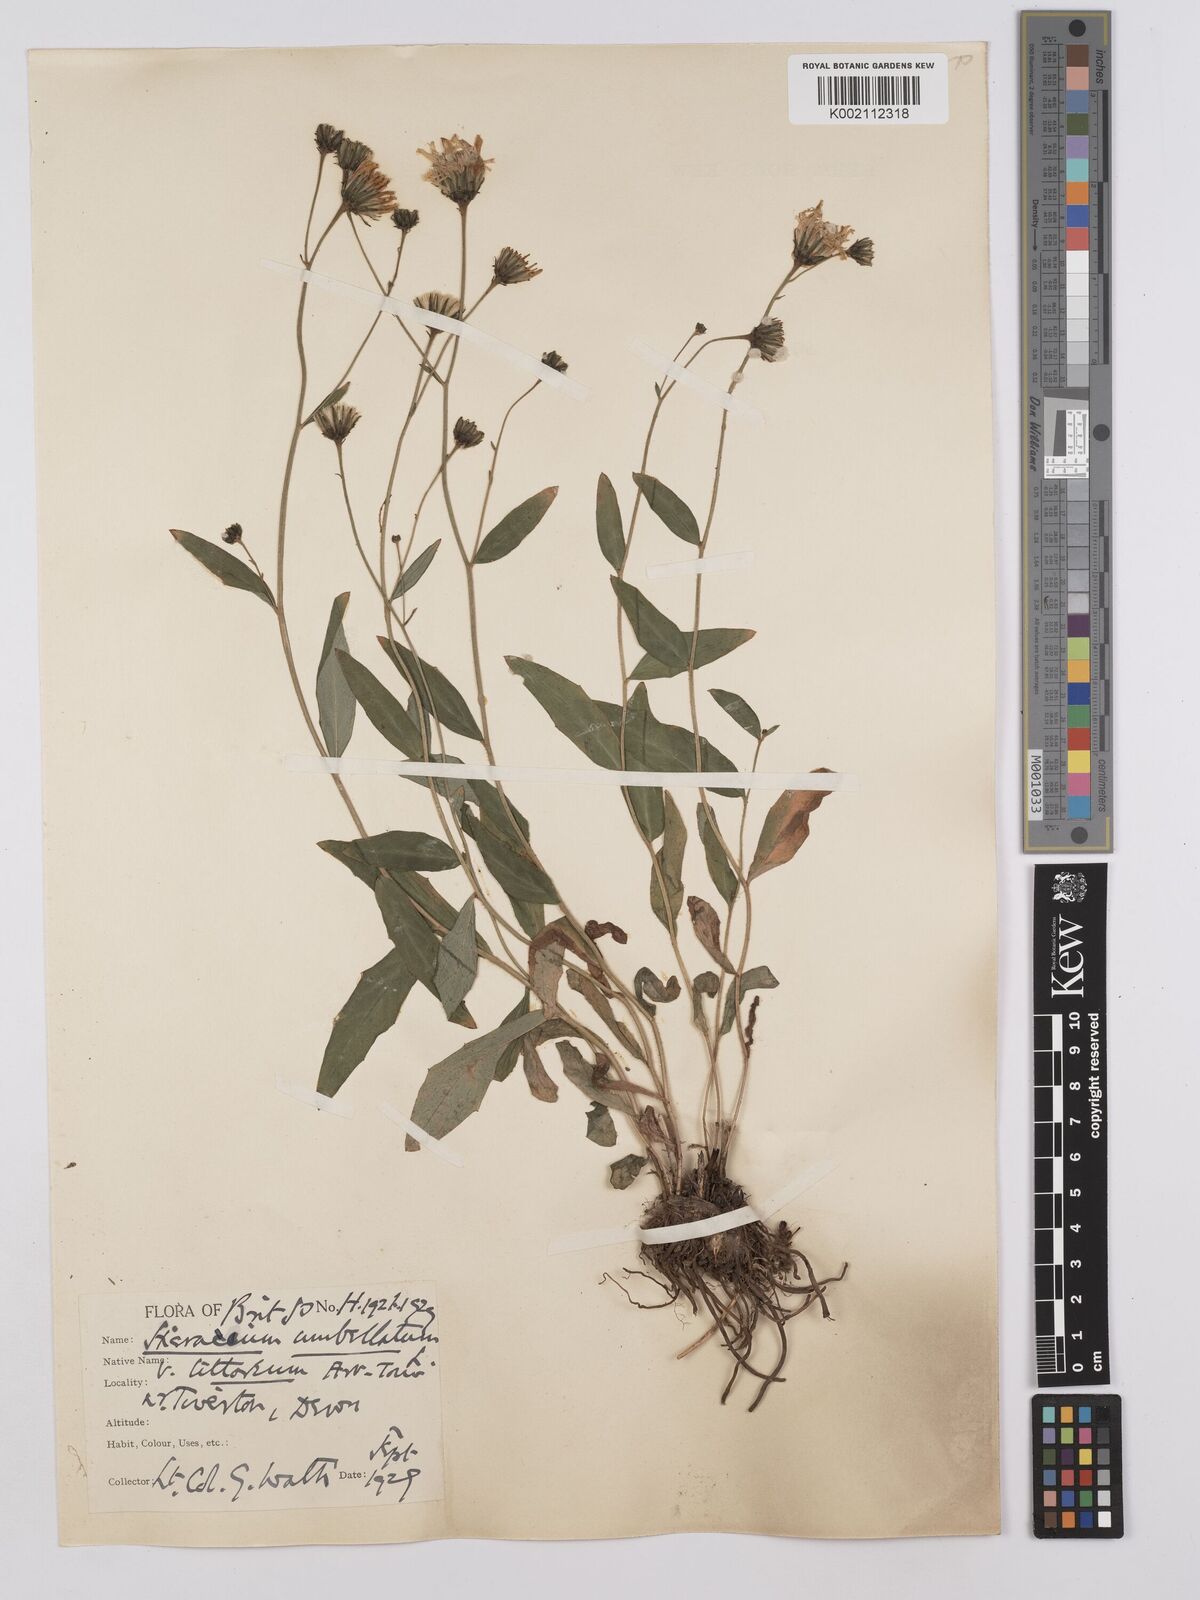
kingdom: Plantae
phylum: Tracheophyta
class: Magnoliopsida
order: Asterales
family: Asteraceae
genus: Hieracium
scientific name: Hieracium umbellatum
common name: Northern hawkweed
